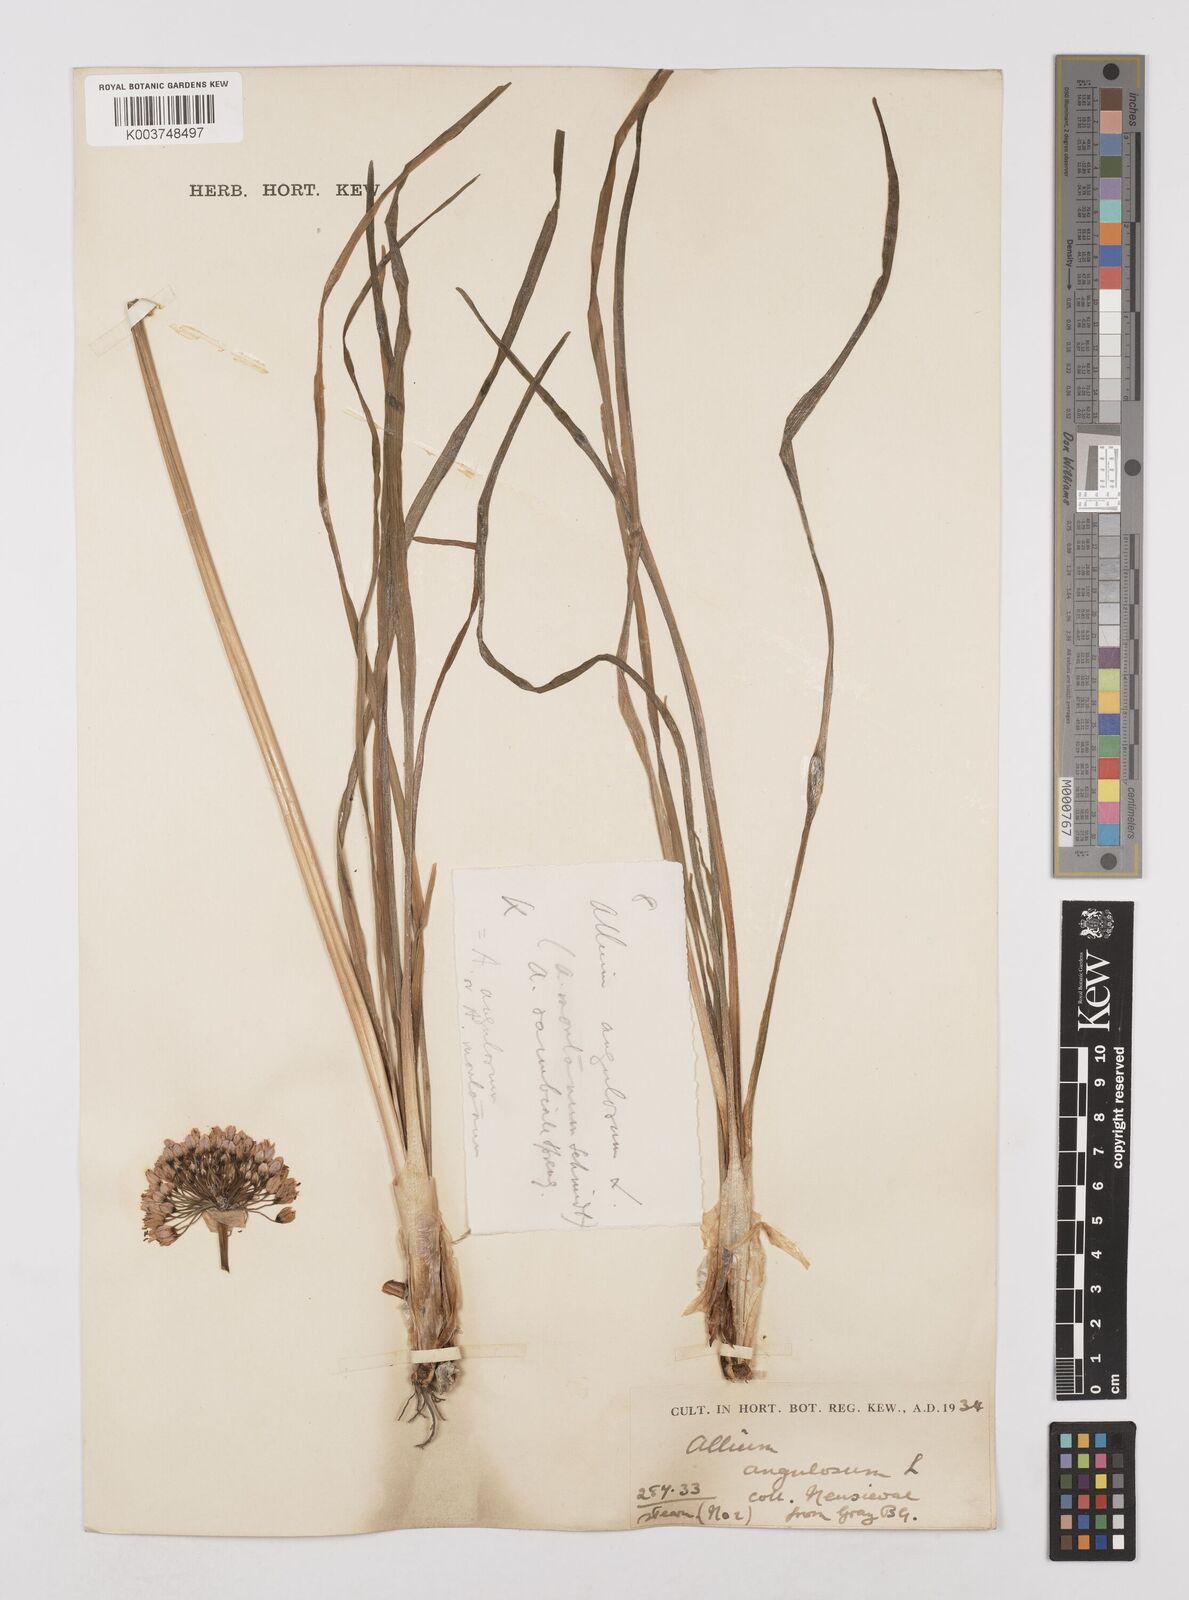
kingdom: Plantae
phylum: Tracheophyta
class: Liliopsida
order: Asparagales
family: Amaryllidaceae
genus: Allium
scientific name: Allium
